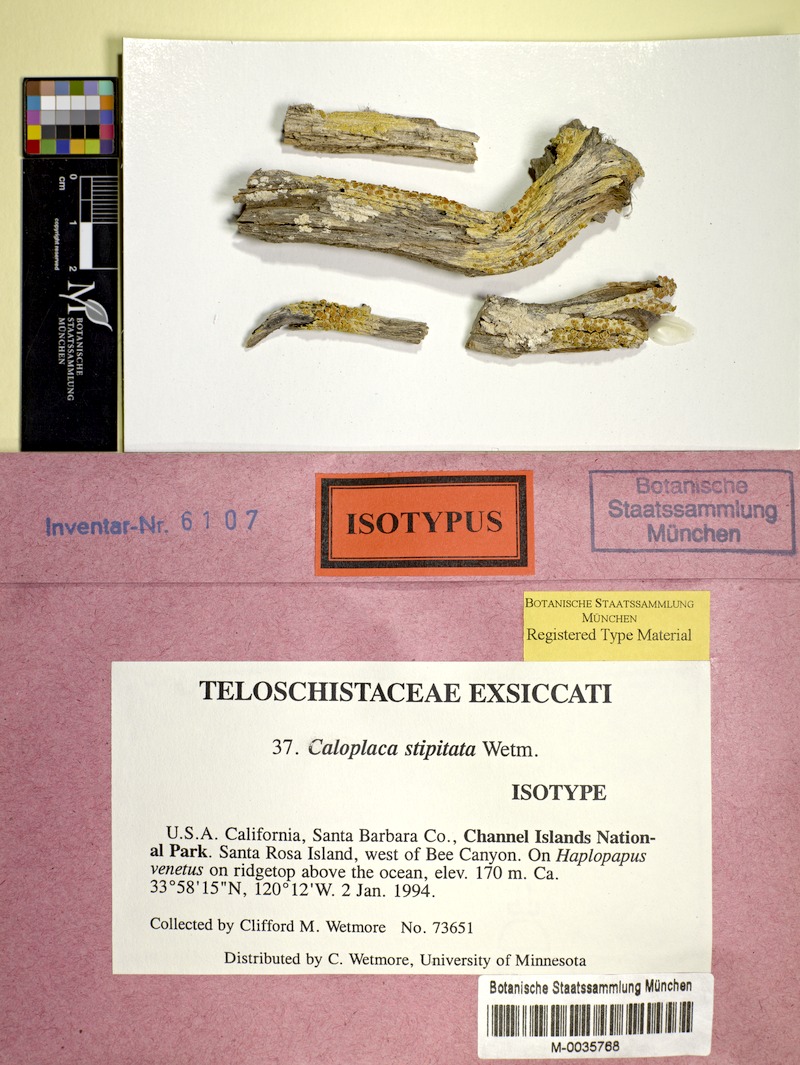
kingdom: Fungi
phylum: Ascomycota
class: Lecanoromycetes
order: Teloschistales
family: Teloschistaceae
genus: Gyalolechia
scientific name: Gyalolechia stipitata
